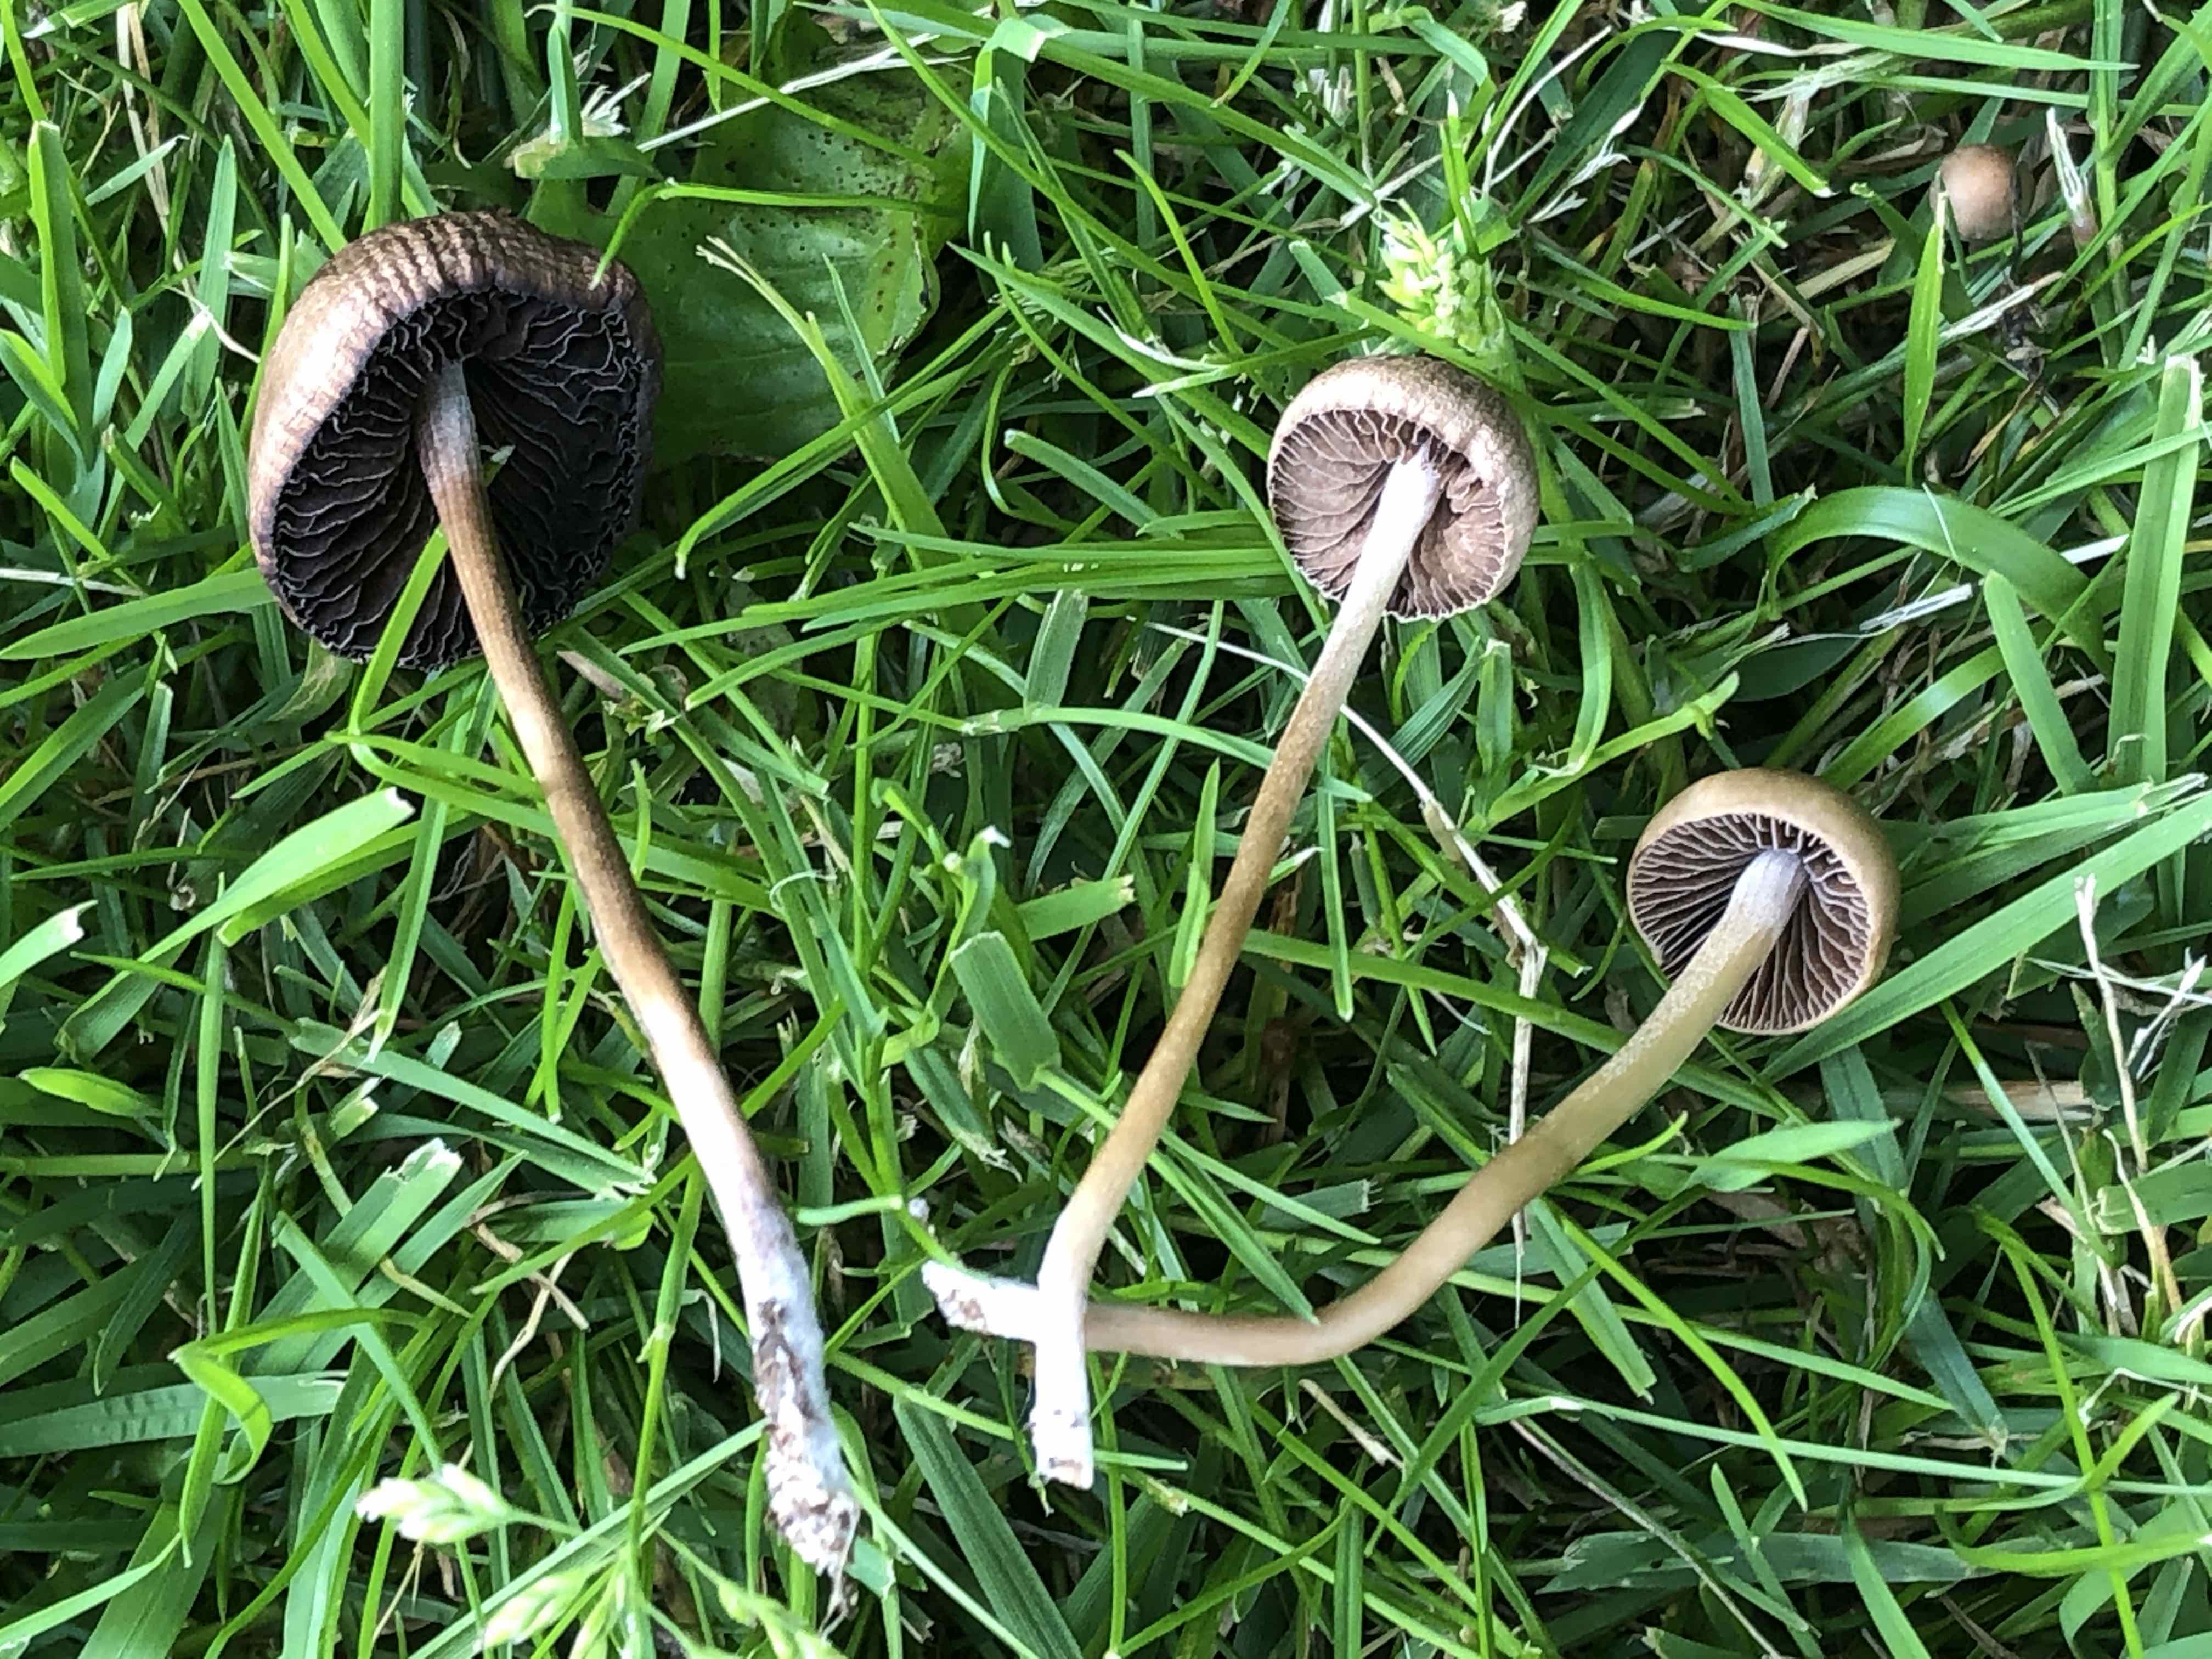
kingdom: Fungi
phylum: Basidiomycota
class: Agaricomycetes
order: Agaricales
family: Bolbitiaceae
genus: Panaeolina
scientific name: Panaeolina foenisecii
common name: høslætsvamp
